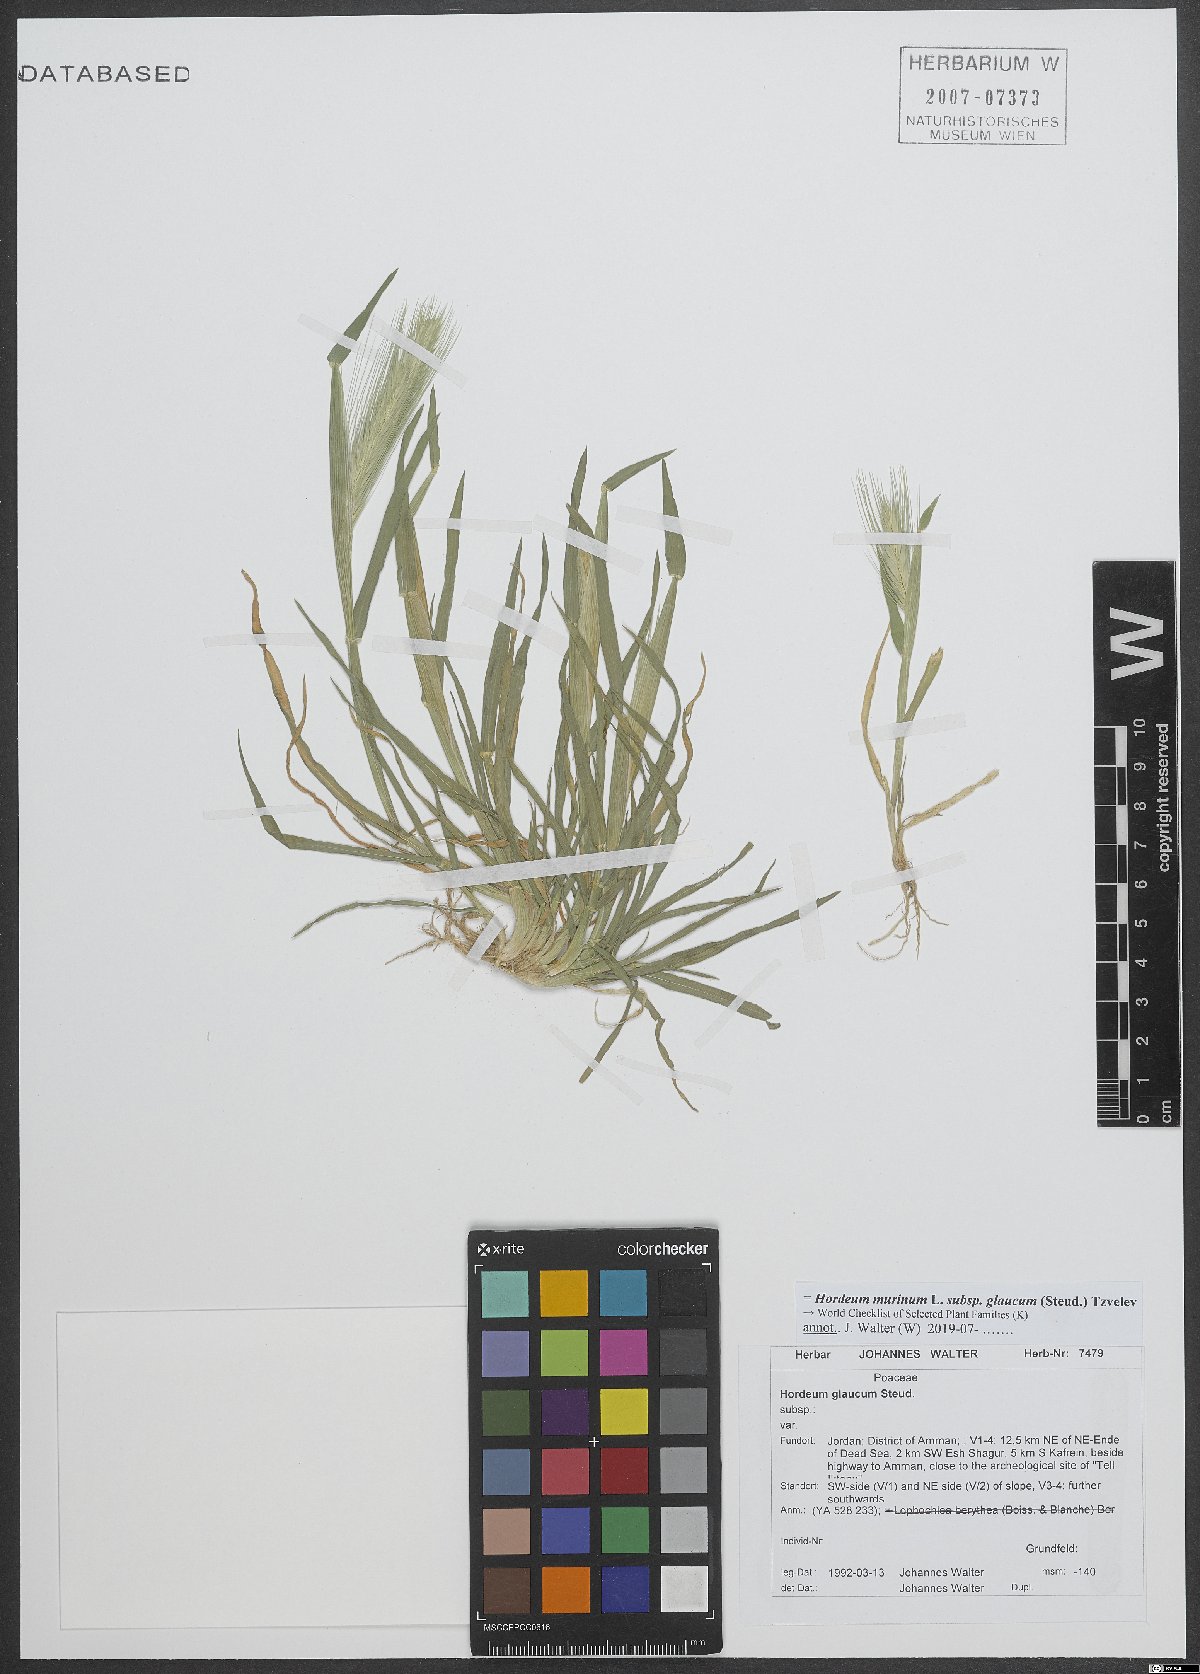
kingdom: Plantae
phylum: Tracheophyta
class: Liliopsida
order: Poales
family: Poaceae
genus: Hordeum
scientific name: Hordeum murinum
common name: Wall barley
